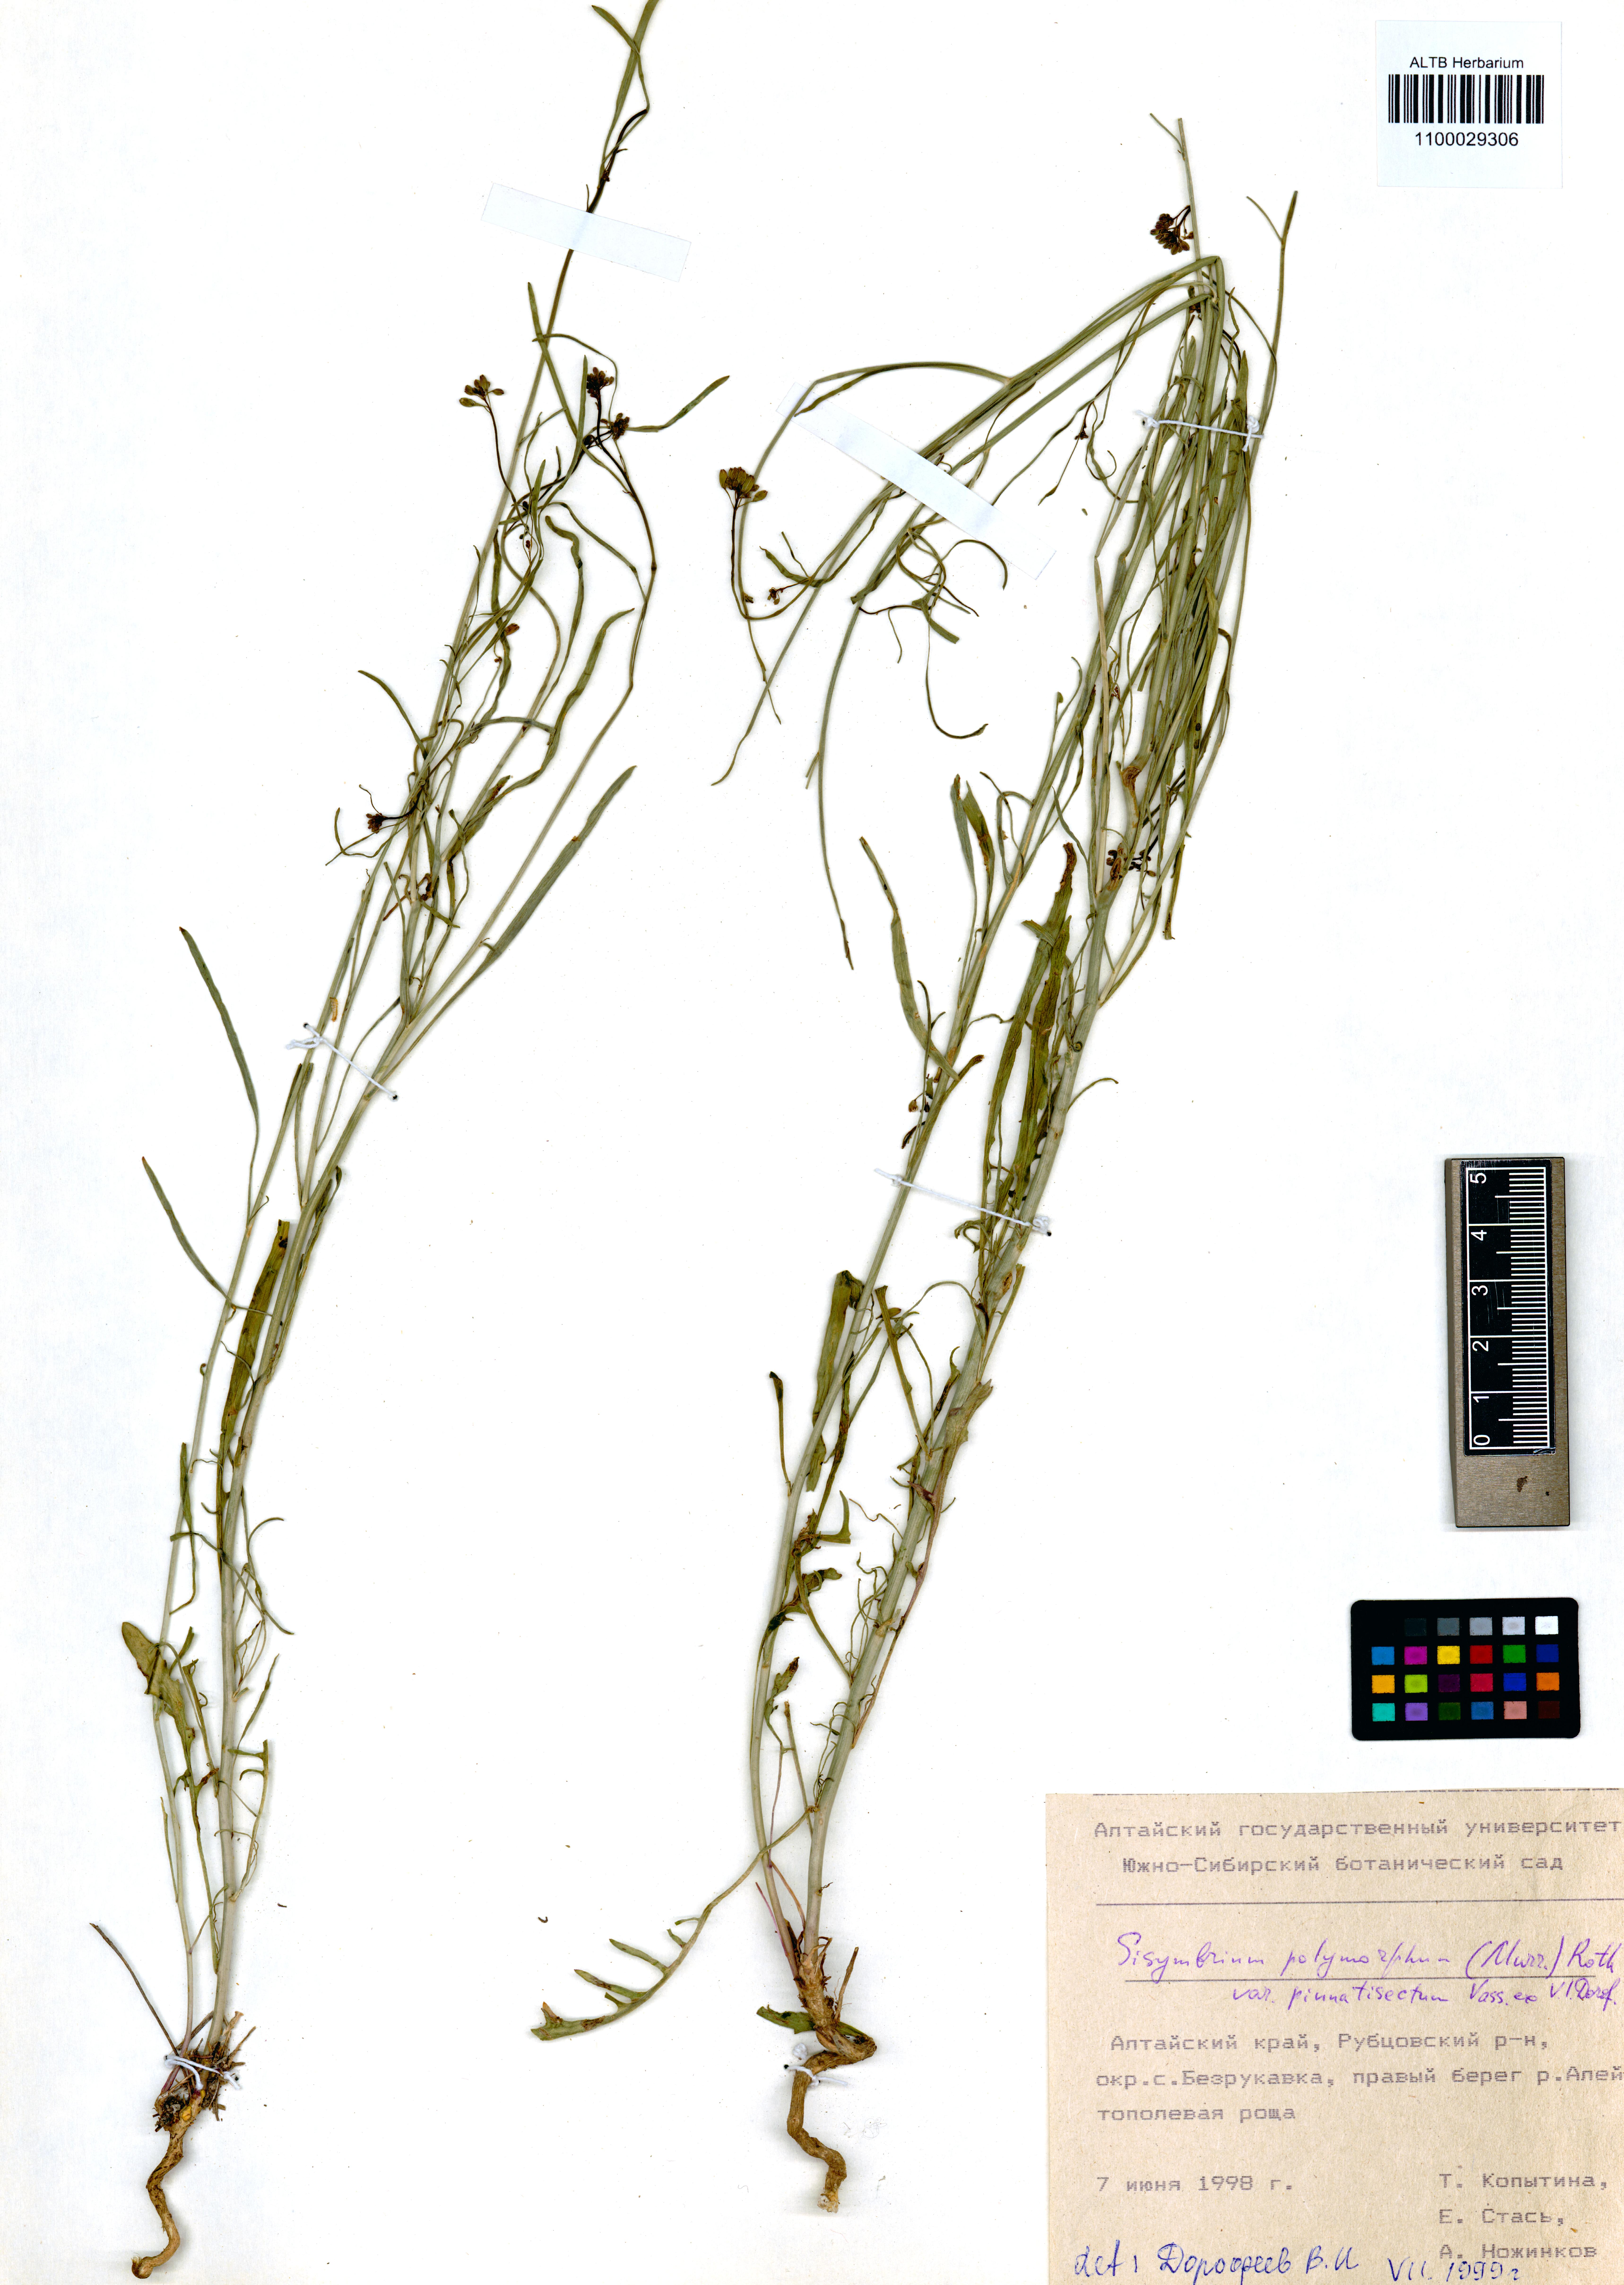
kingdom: Plantae
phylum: Tracheophyta
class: Magnoliopsida
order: Brassicales
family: Brassicaceae
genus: Sisymbrium
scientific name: Sisymbrium polymorphum
